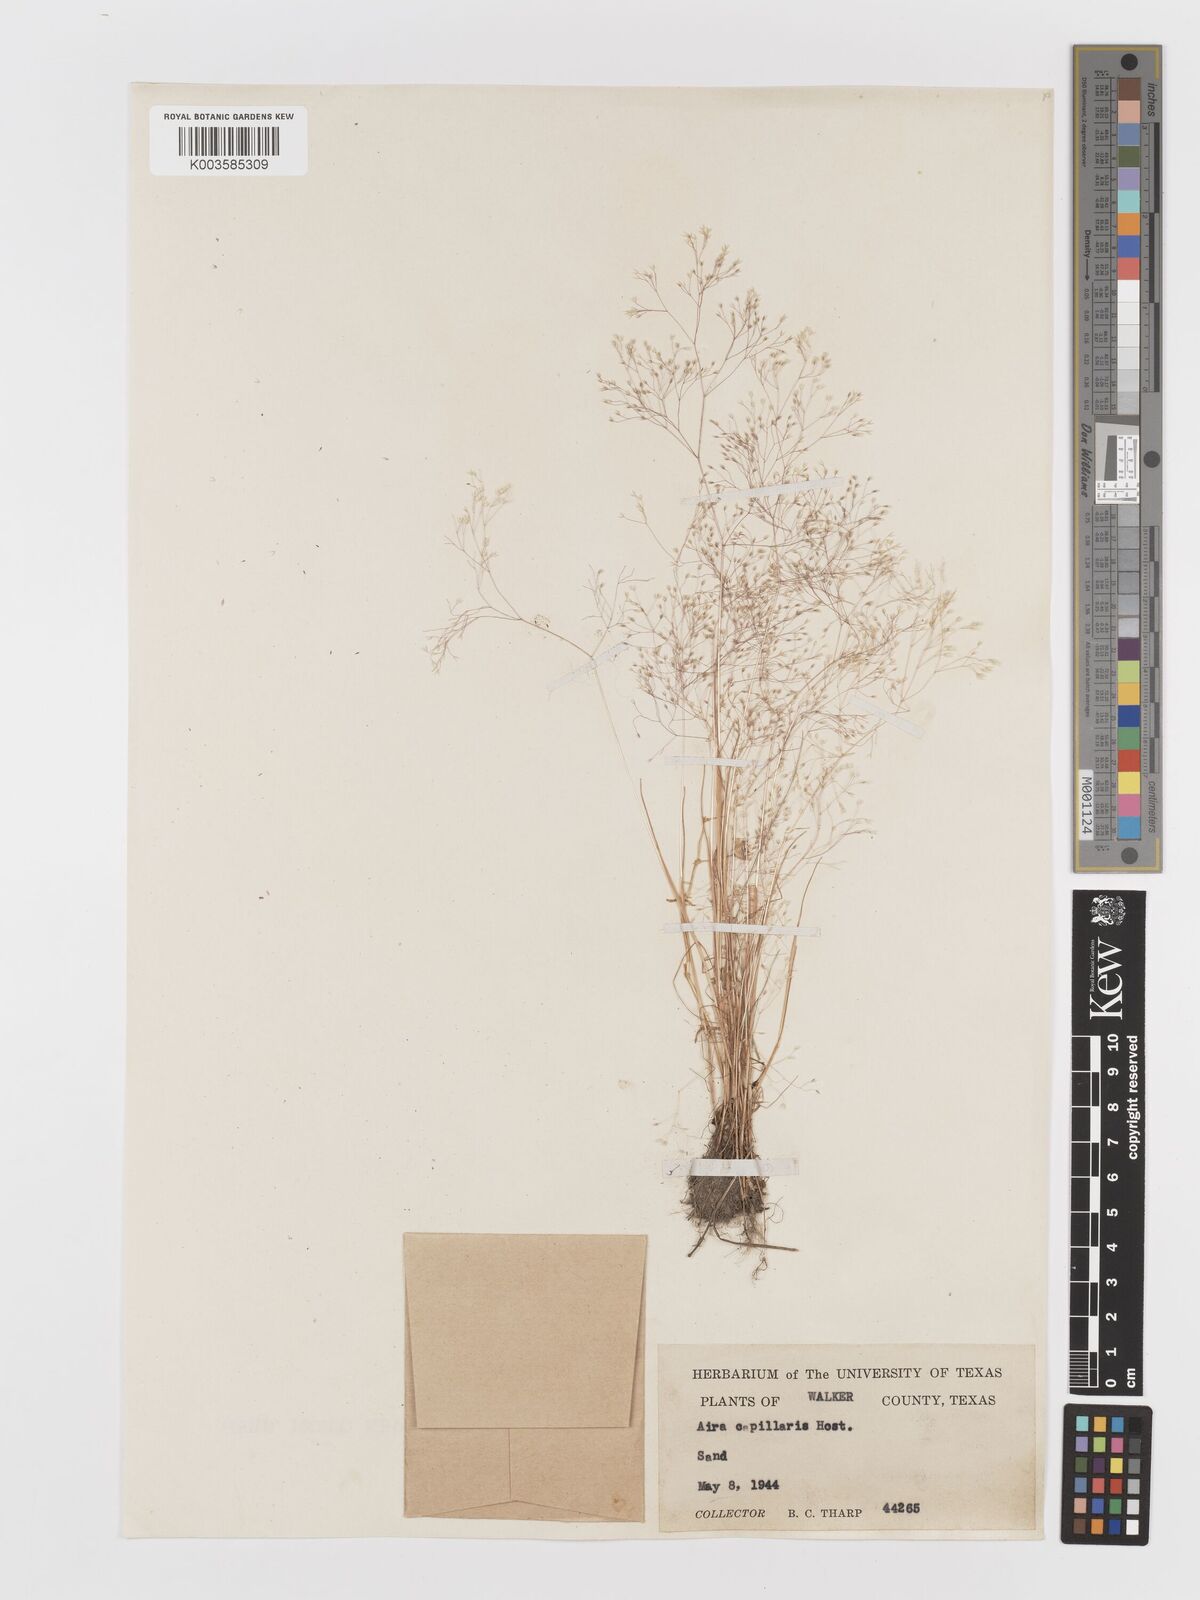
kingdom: Plantae
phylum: Tracheophyta
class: Liliopsida
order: Poales
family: Poaceae
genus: Aira
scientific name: Aira elegans
